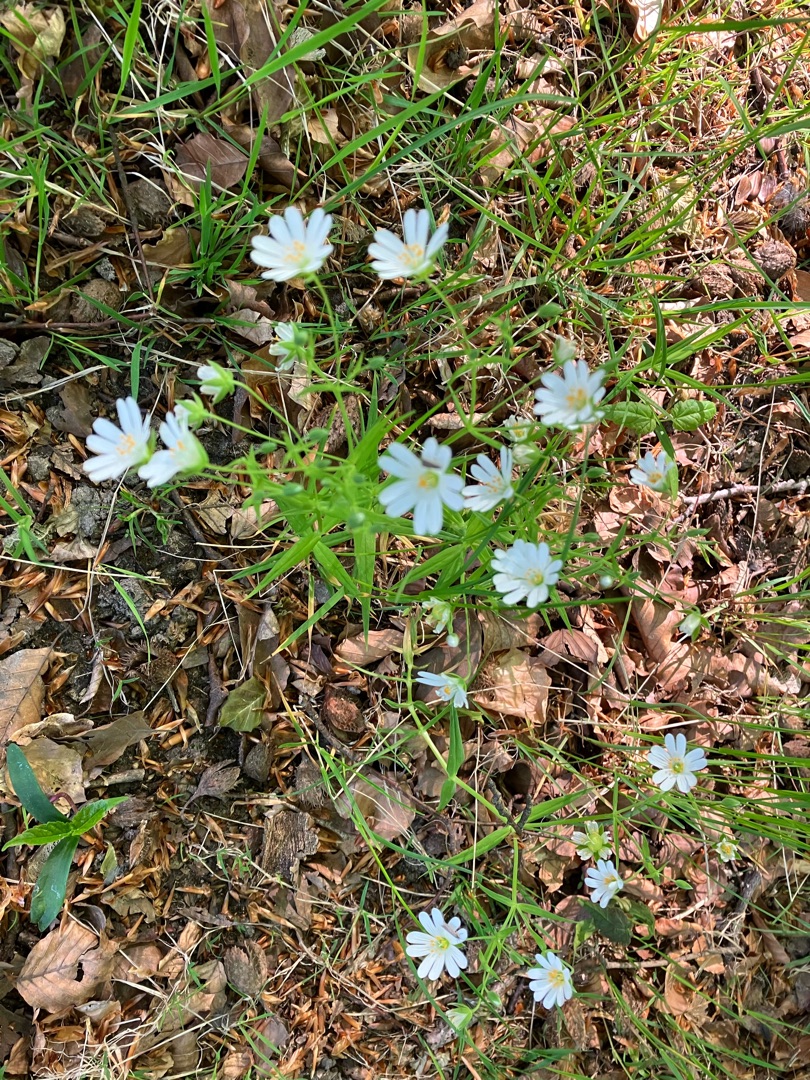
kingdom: Plantae
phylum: Tracheophyta
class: Magnoliopsida
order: Caryophyllales
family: Caryophyllaceae
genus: Rabelera
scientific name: Rabelera holostea
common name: Stor fladstjerne
